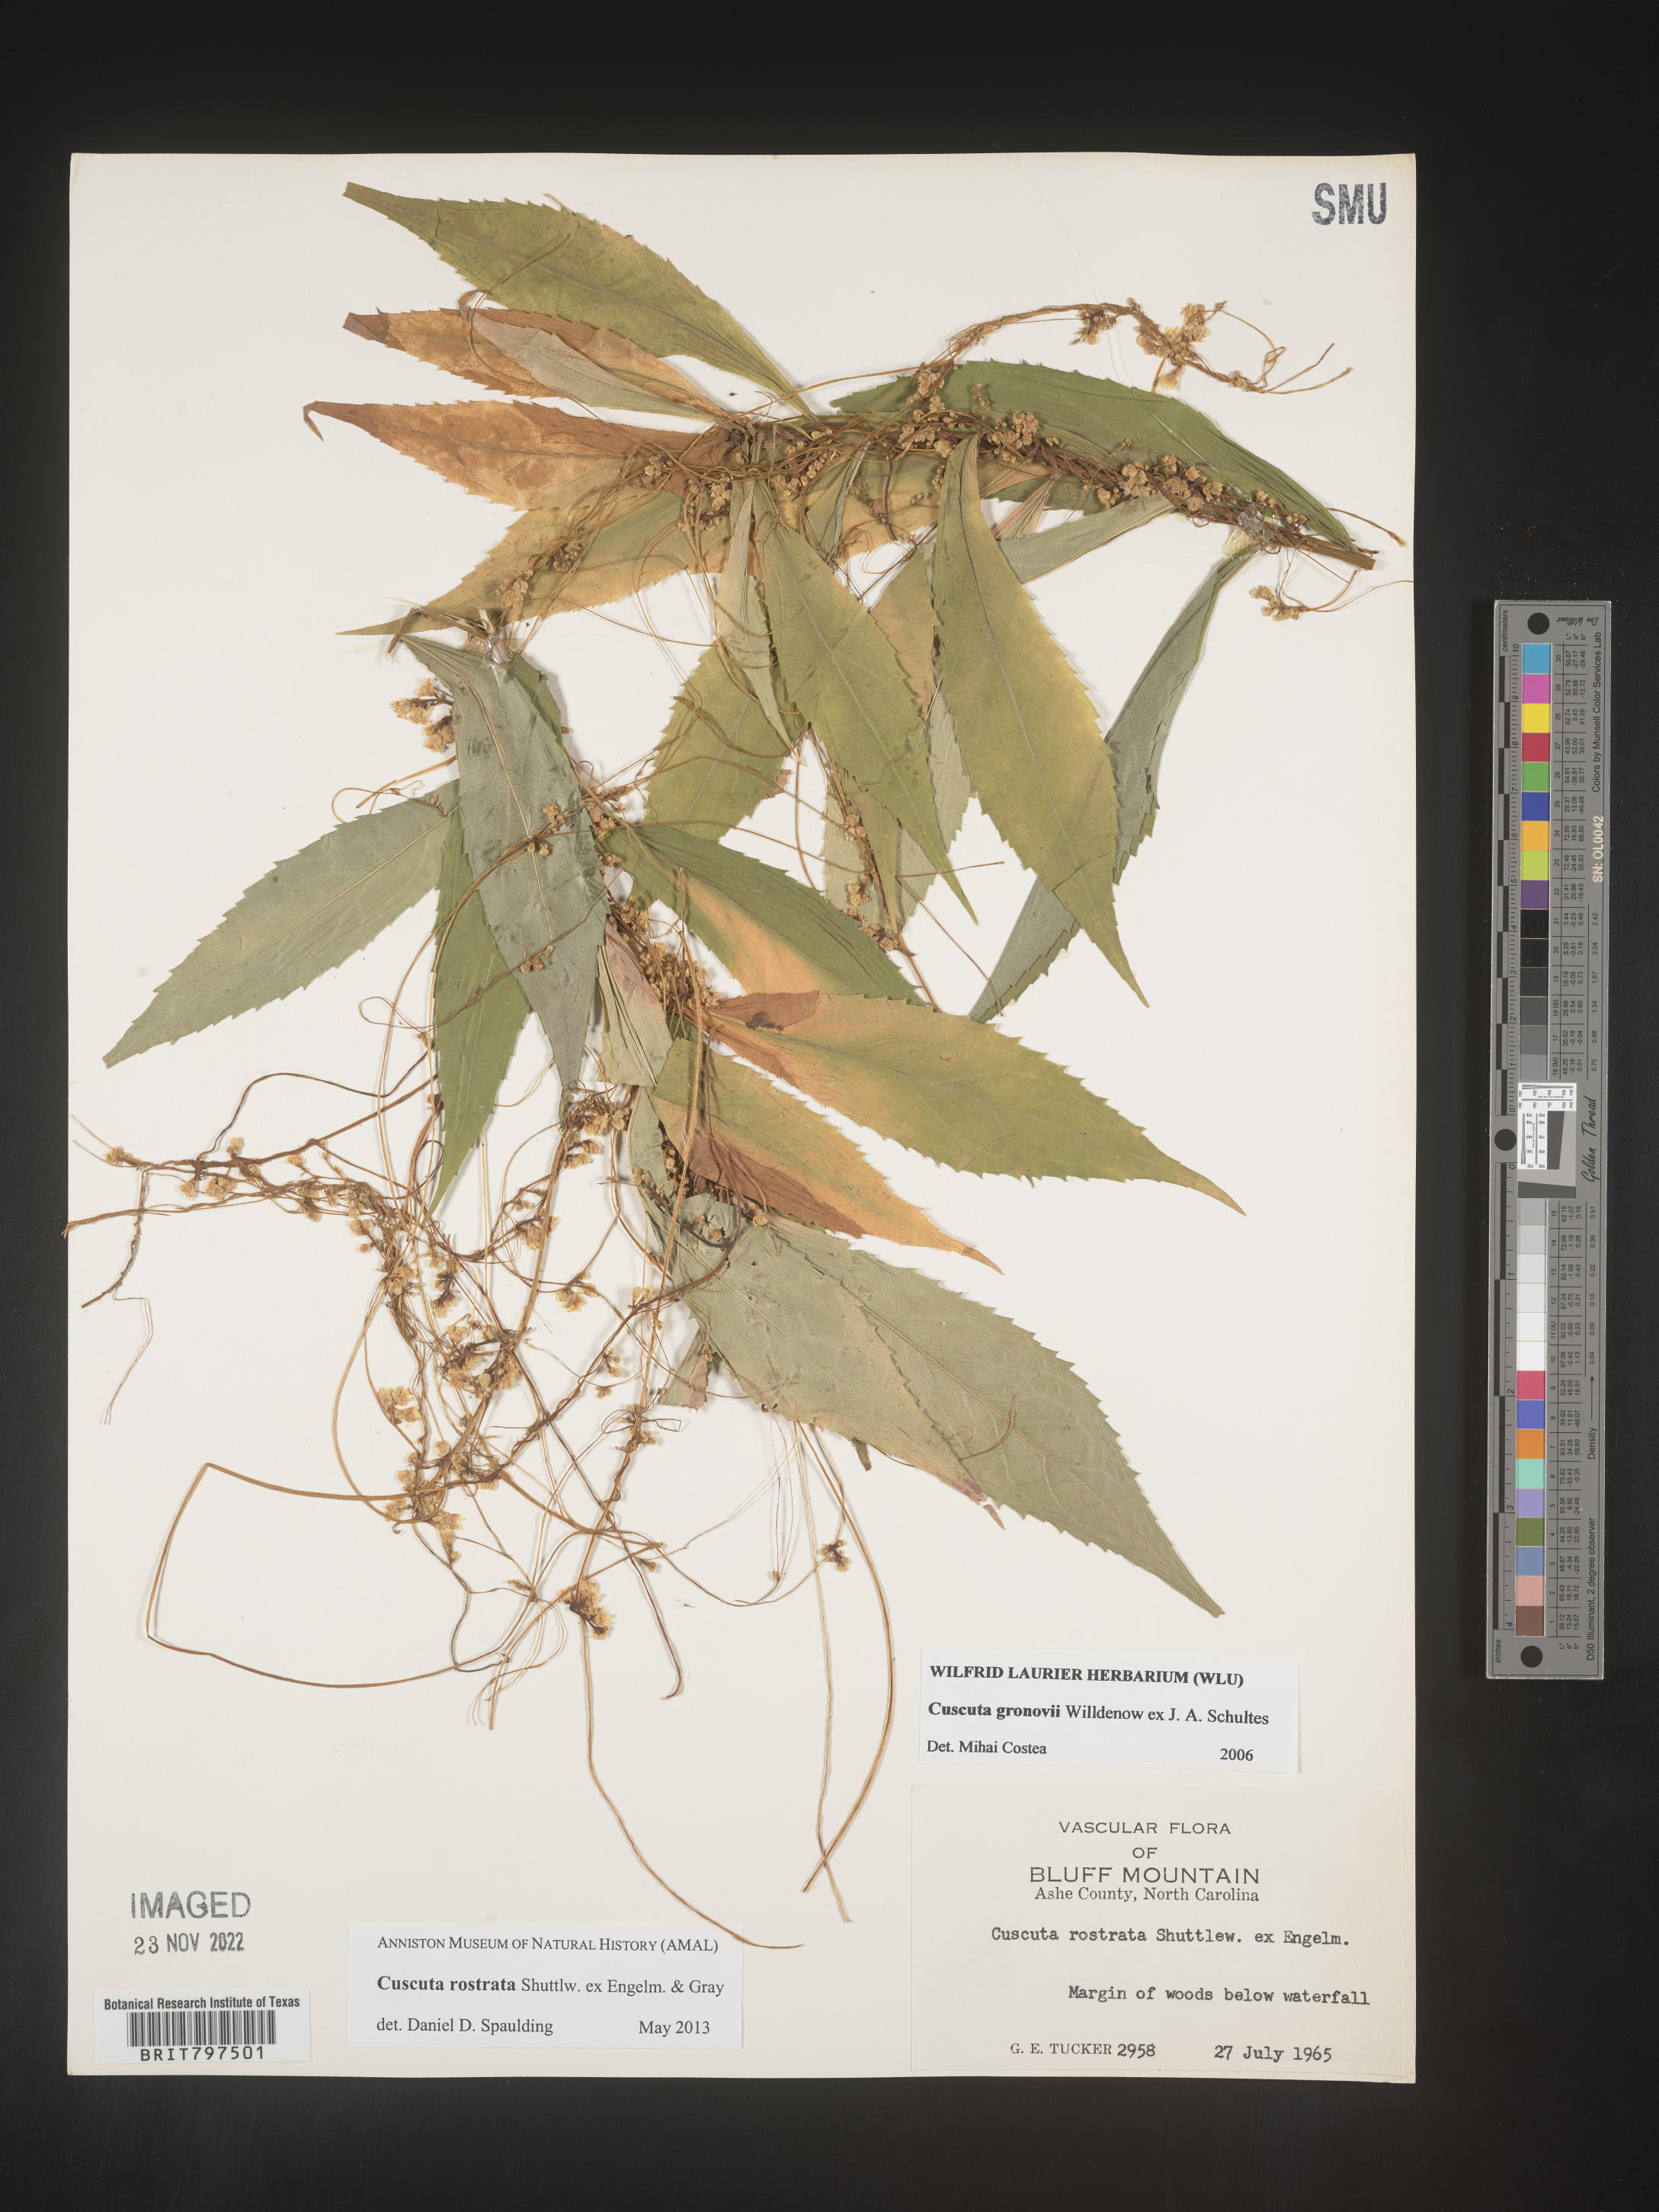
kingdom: Plantae
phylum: Tracheophyta
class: Magnoliopsida
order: Solanales
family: Convolvulaceae
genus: Cuscuta
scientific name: Cuscuta rostrata
